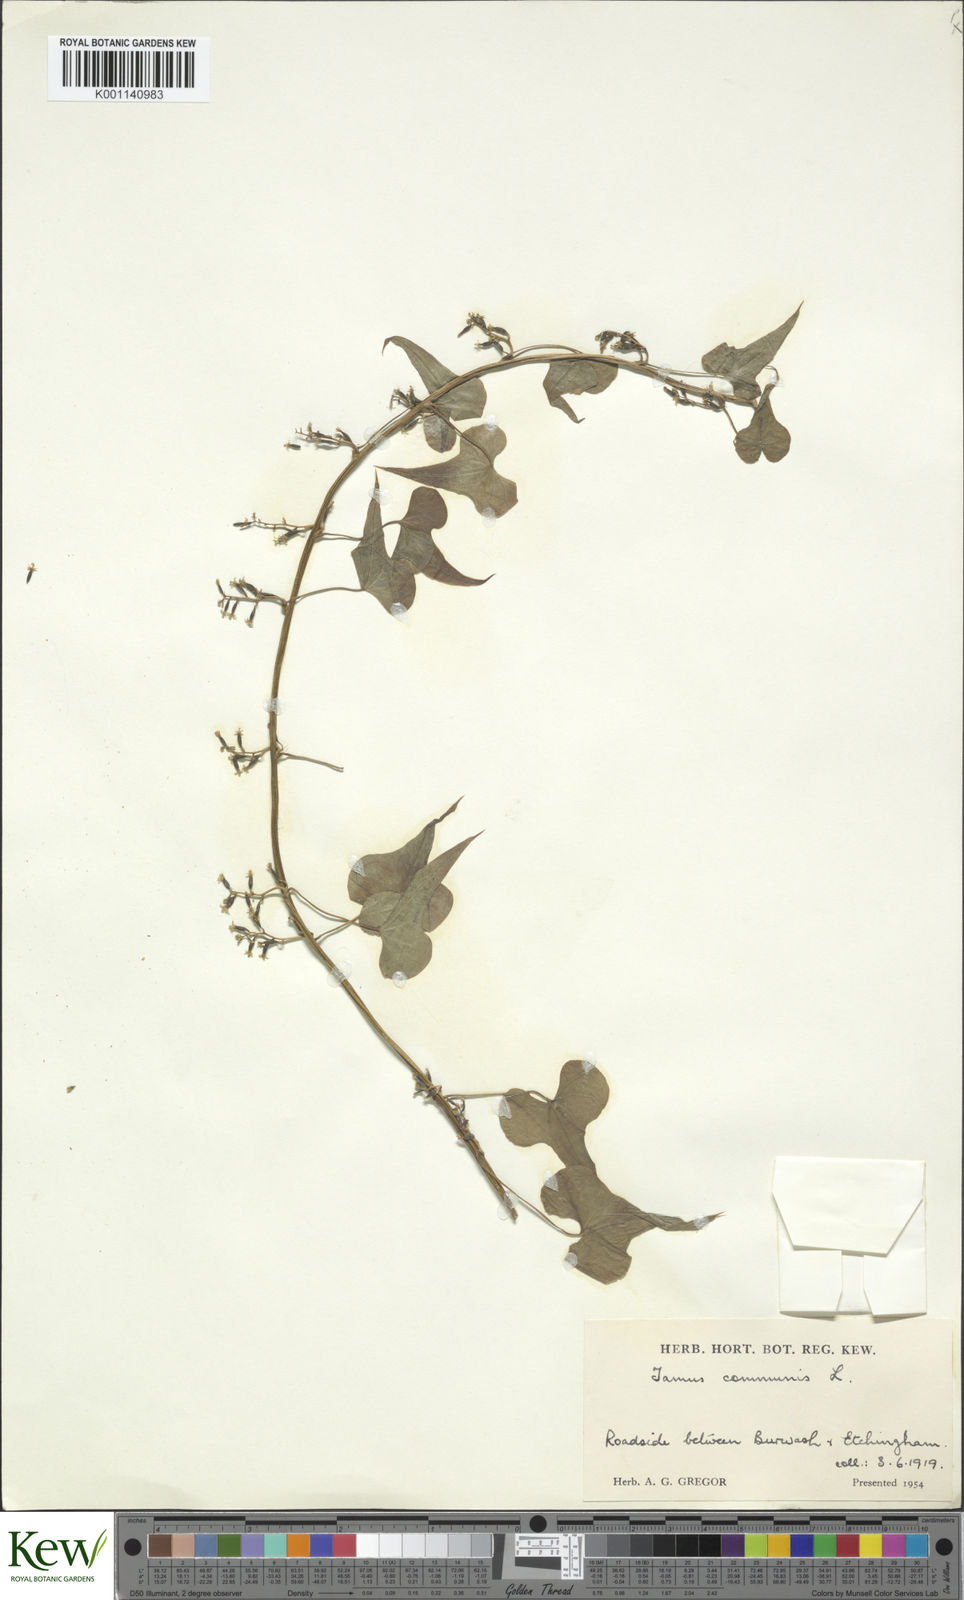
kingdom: Plantae
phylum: Tracheophyta
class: Liliopsida
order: Dioscoreales
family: Dioscoreaceae
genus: Dioscorea
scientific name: Dioscorea communis
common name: Black-bindweed
